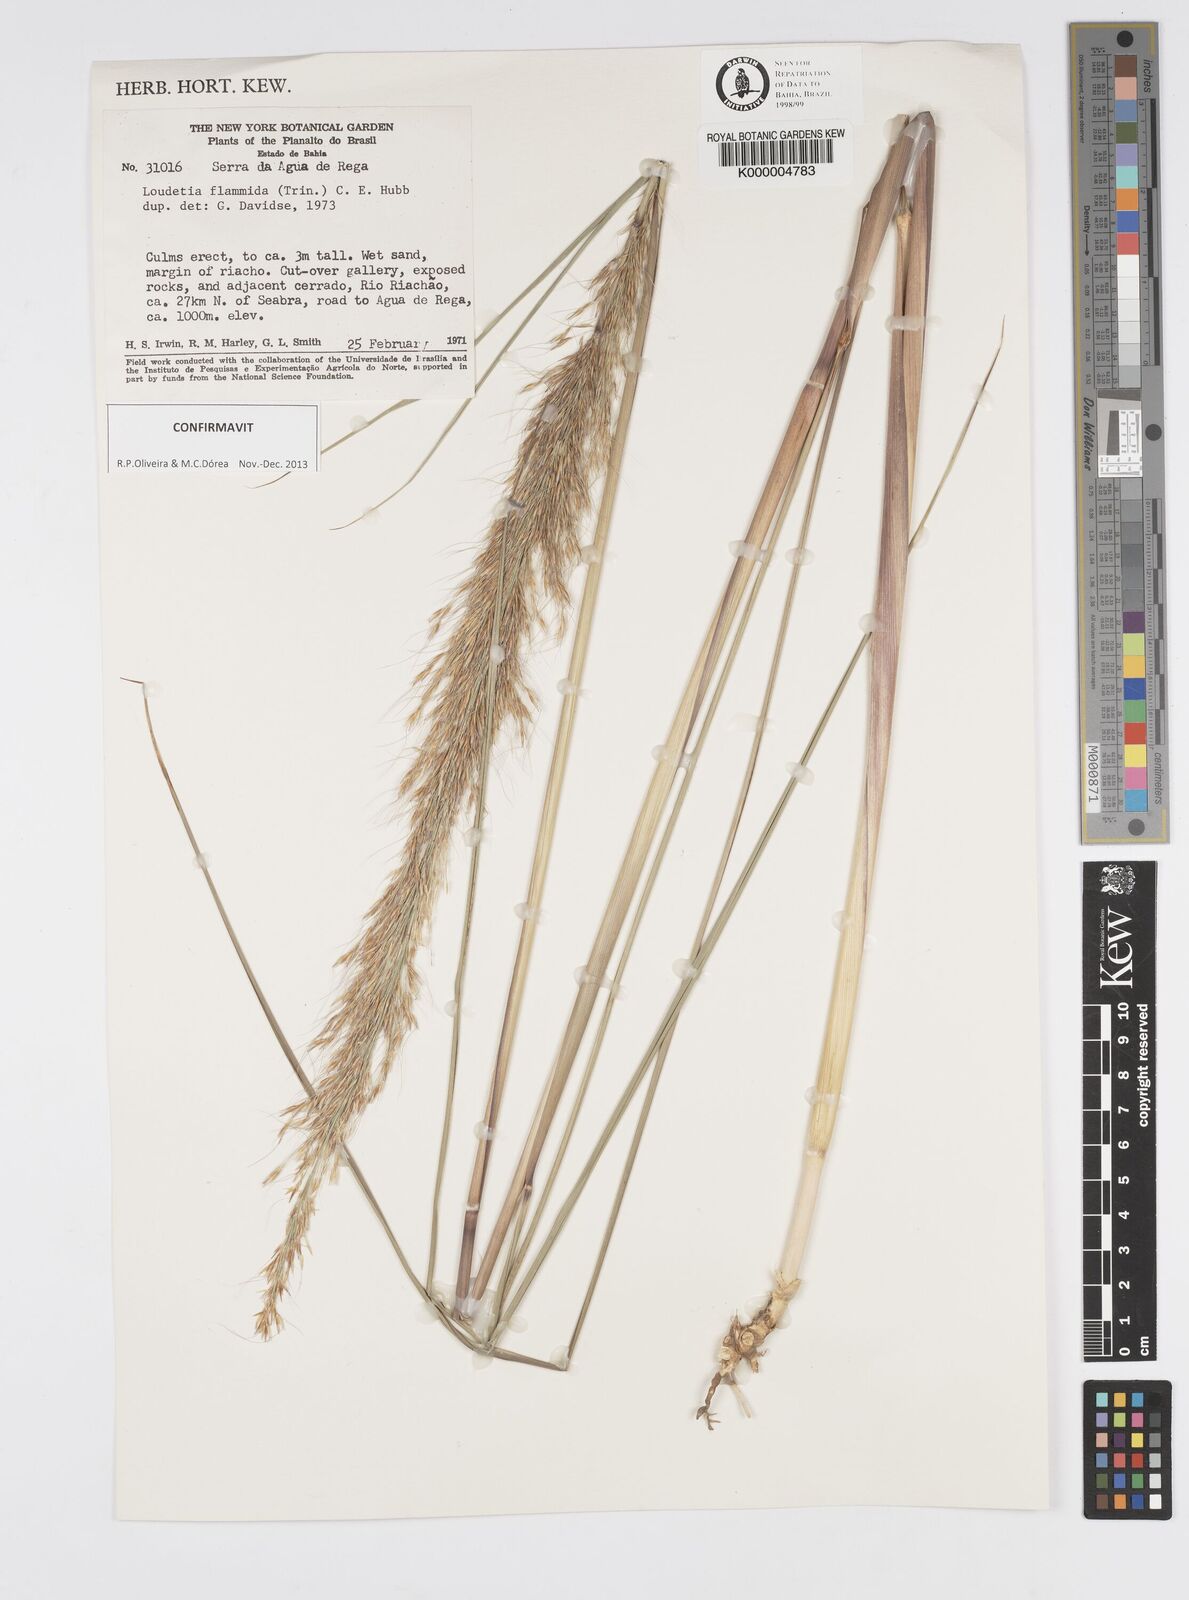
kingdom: Plantae
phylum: Tracheophyta
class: Liliopsida
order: Poales
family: Poaceae
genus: Loudetia
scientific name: Loudetia flammida
